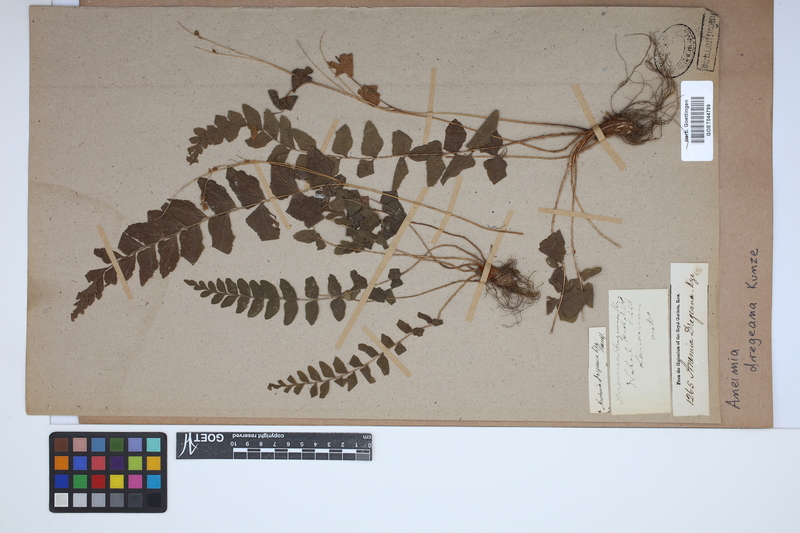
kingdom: Plantae
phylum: Tracheophyta
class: Polypodiopsida
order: Schizaeales
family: Anemiaceae
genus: Anemia
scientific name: Anemia dregeana
